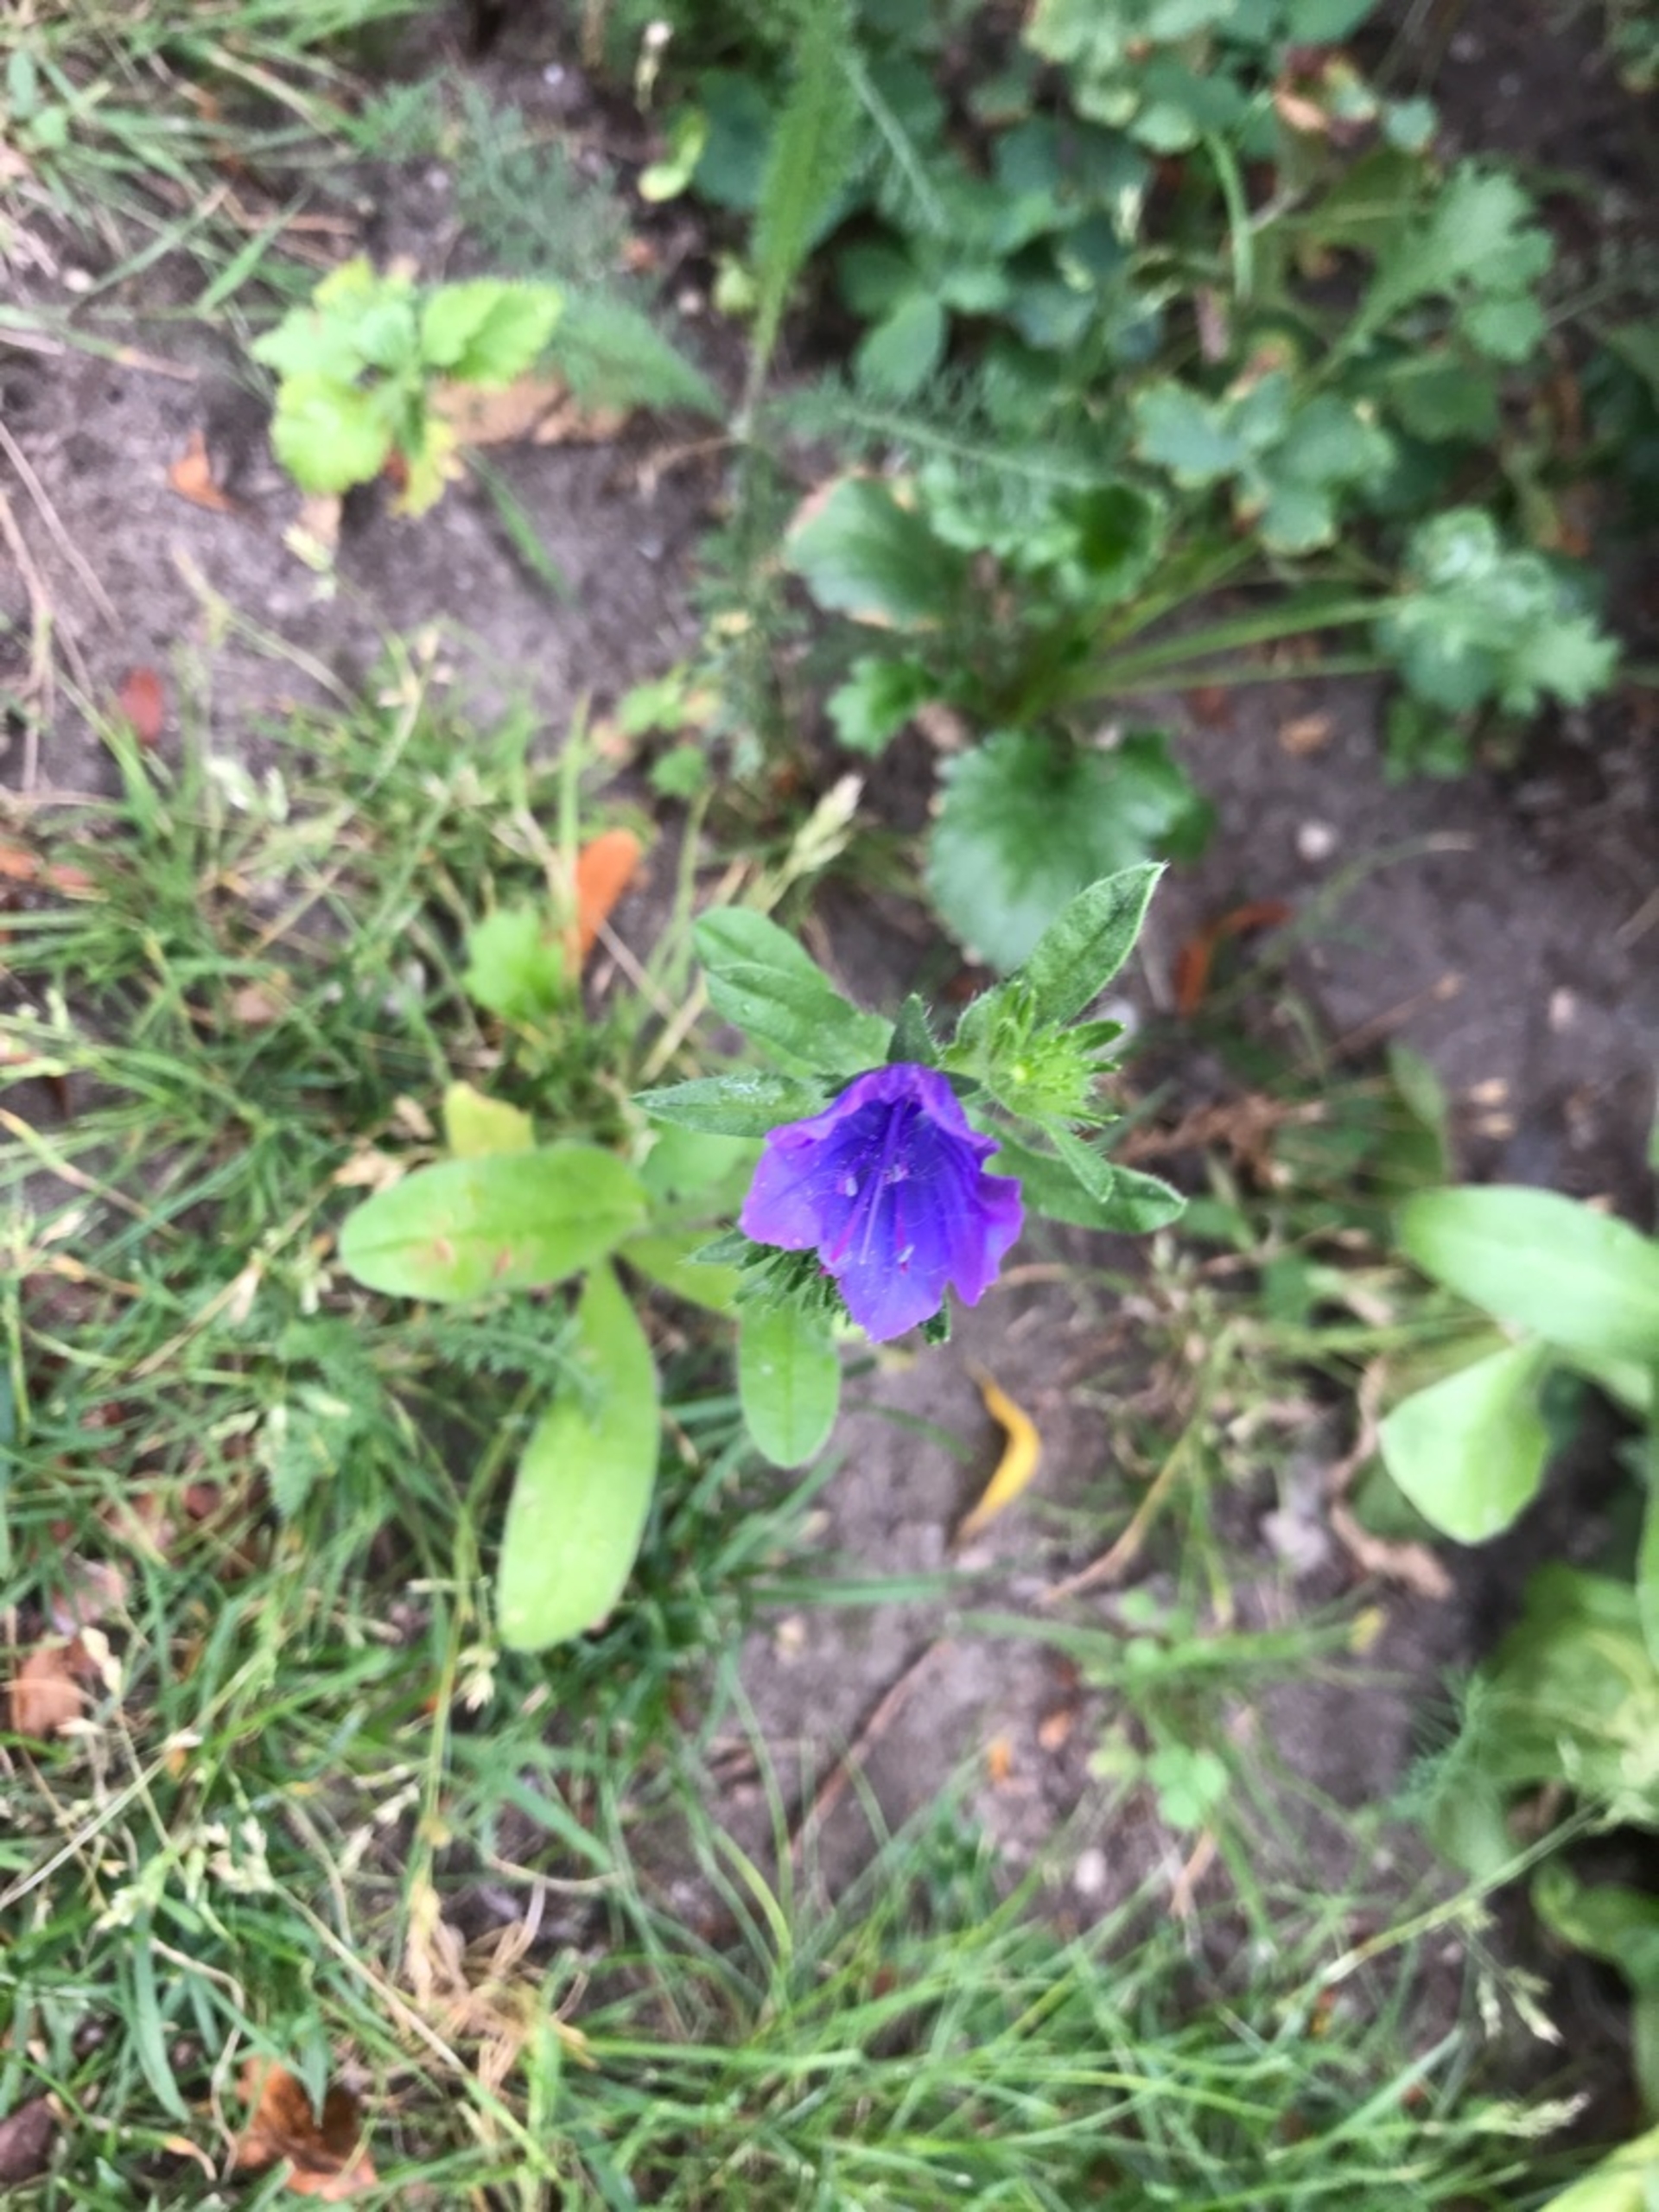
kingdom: Plantae
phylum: Tracheophyta
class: Magnoliopsida
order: Boraginales
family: Boraginaceae
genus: Echium
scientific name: Echium plantagineum
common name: Vejbred-slangehoved
